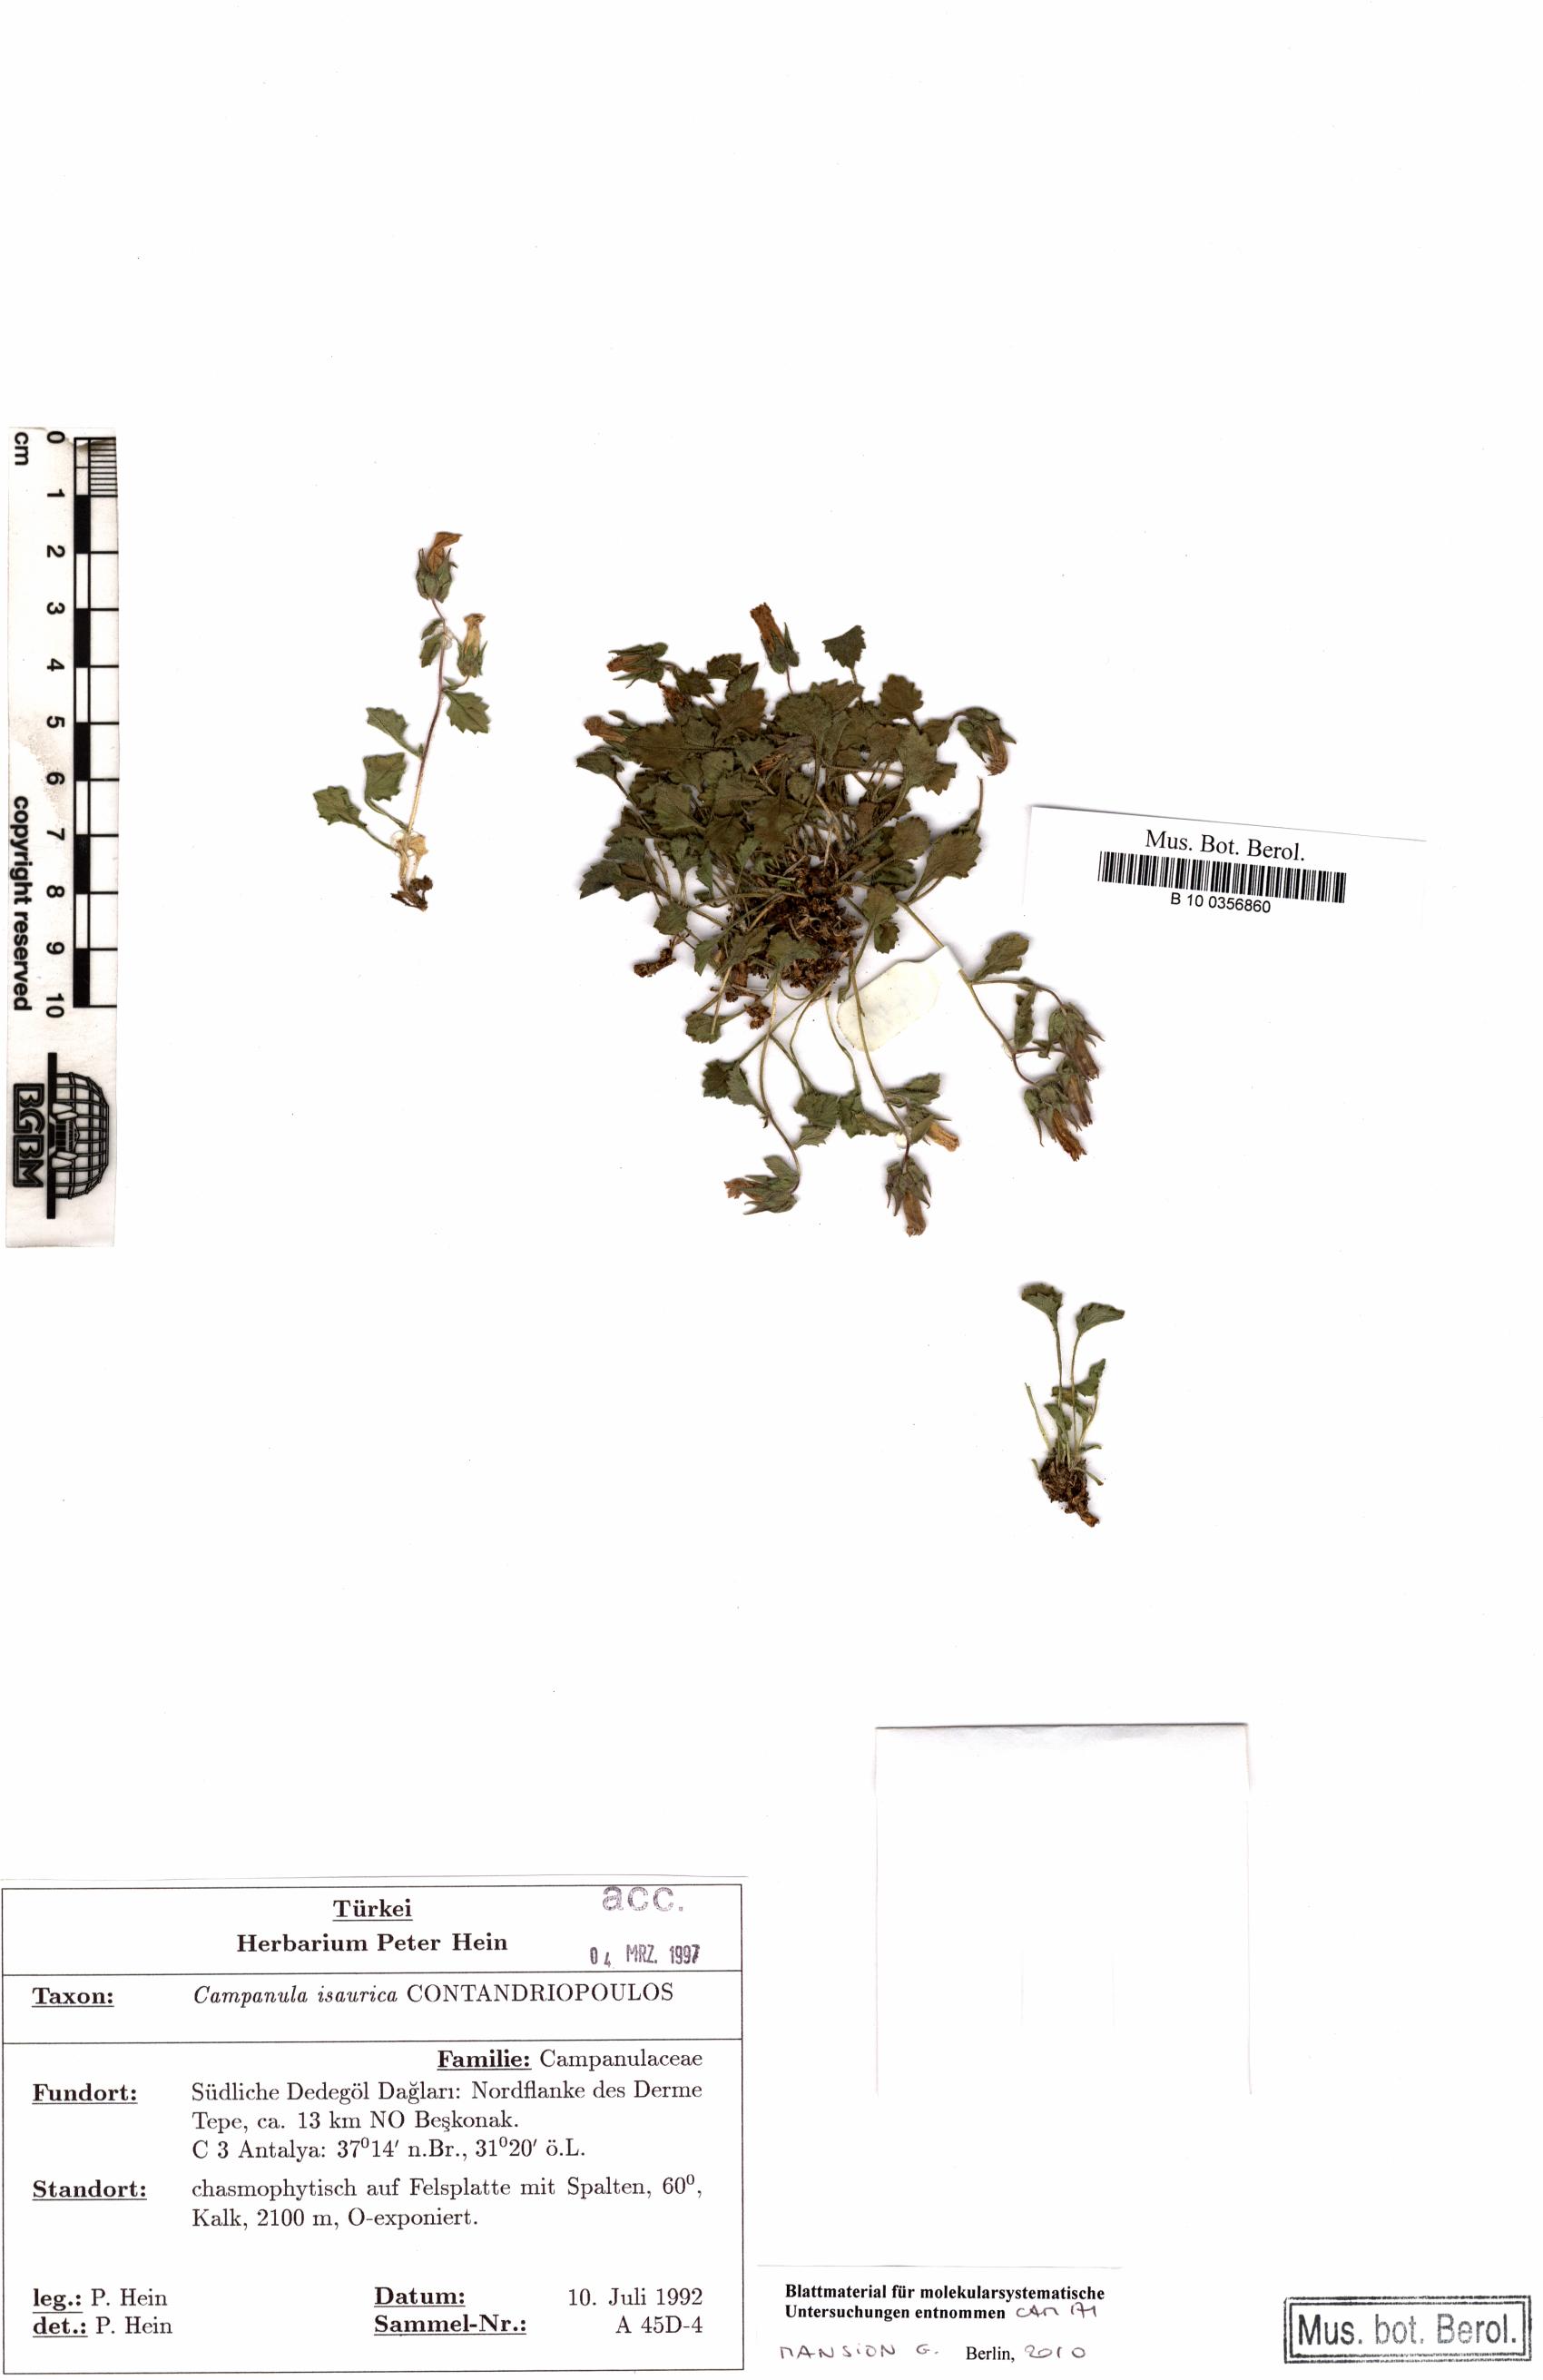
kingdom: Plantae
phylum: Tracheophyta
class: Magnoliopsida
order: Asterales
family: Campanulaceae
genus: Campanula
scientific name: Campanula isaurica
